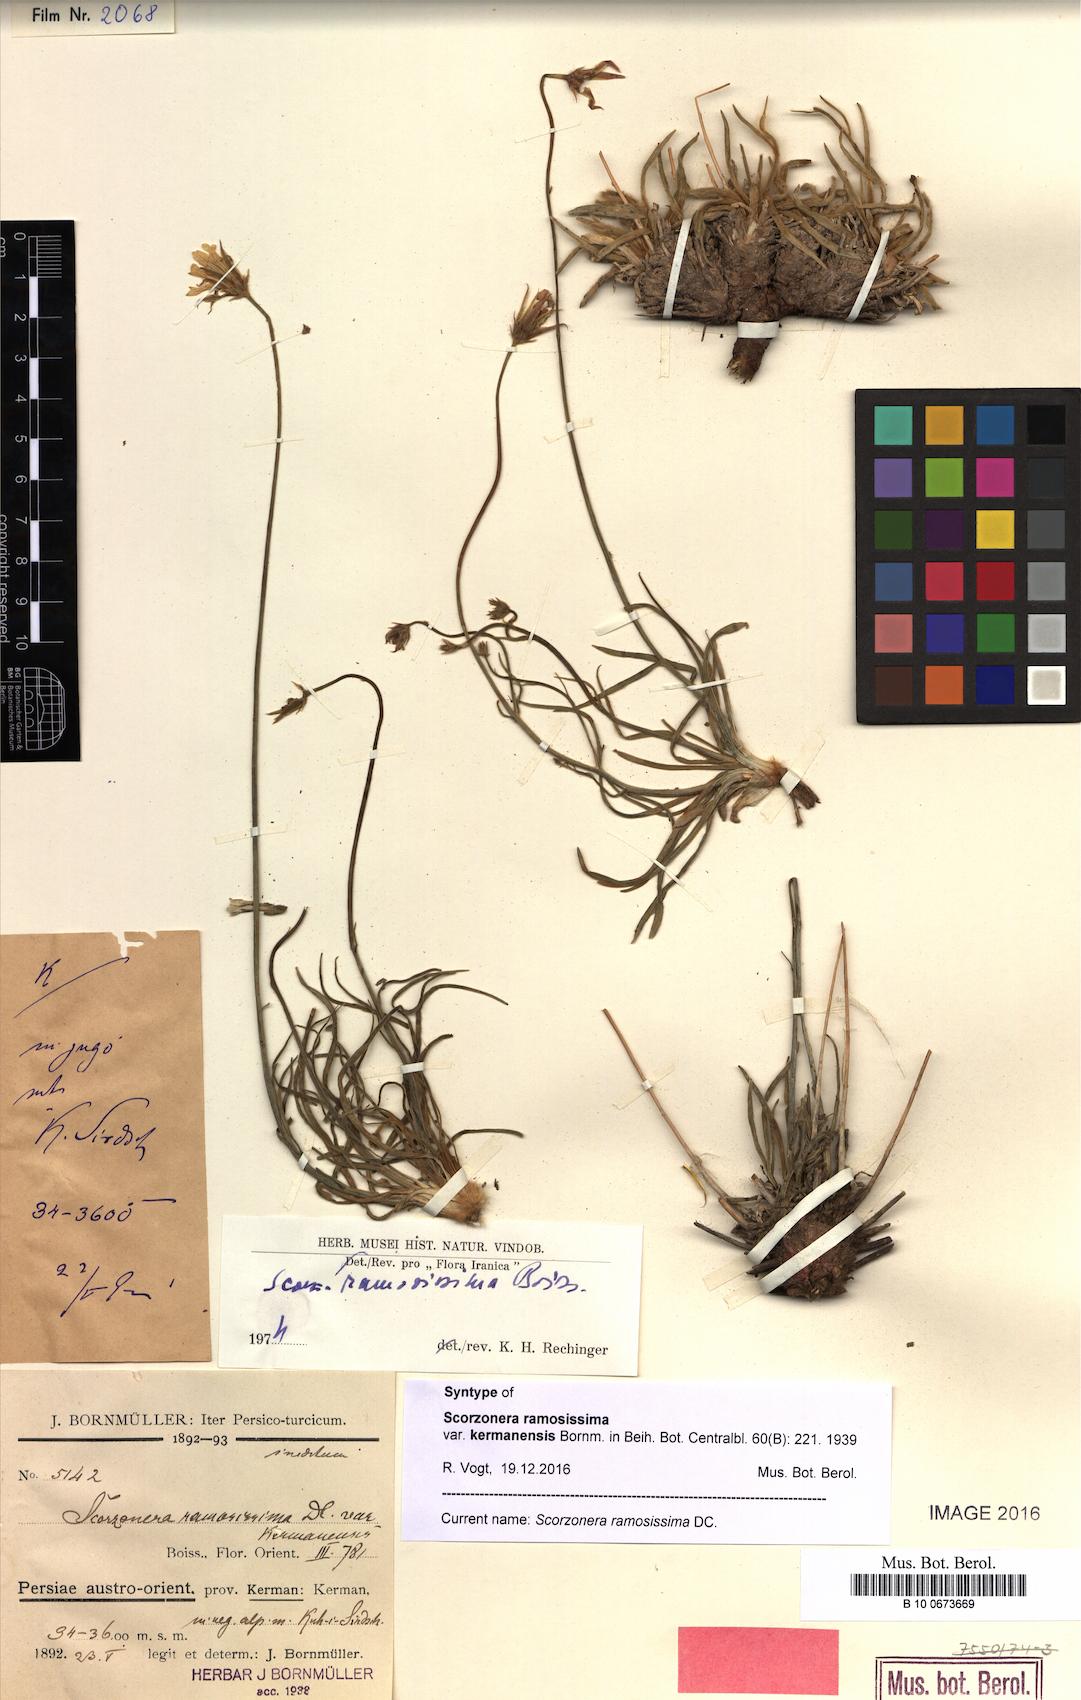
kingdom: Plantae
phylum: Tracheophyta
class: Magnoliopsida
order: Asterales
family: Asteraceae
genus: Gelasia
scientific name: Gelasia ramosissima
